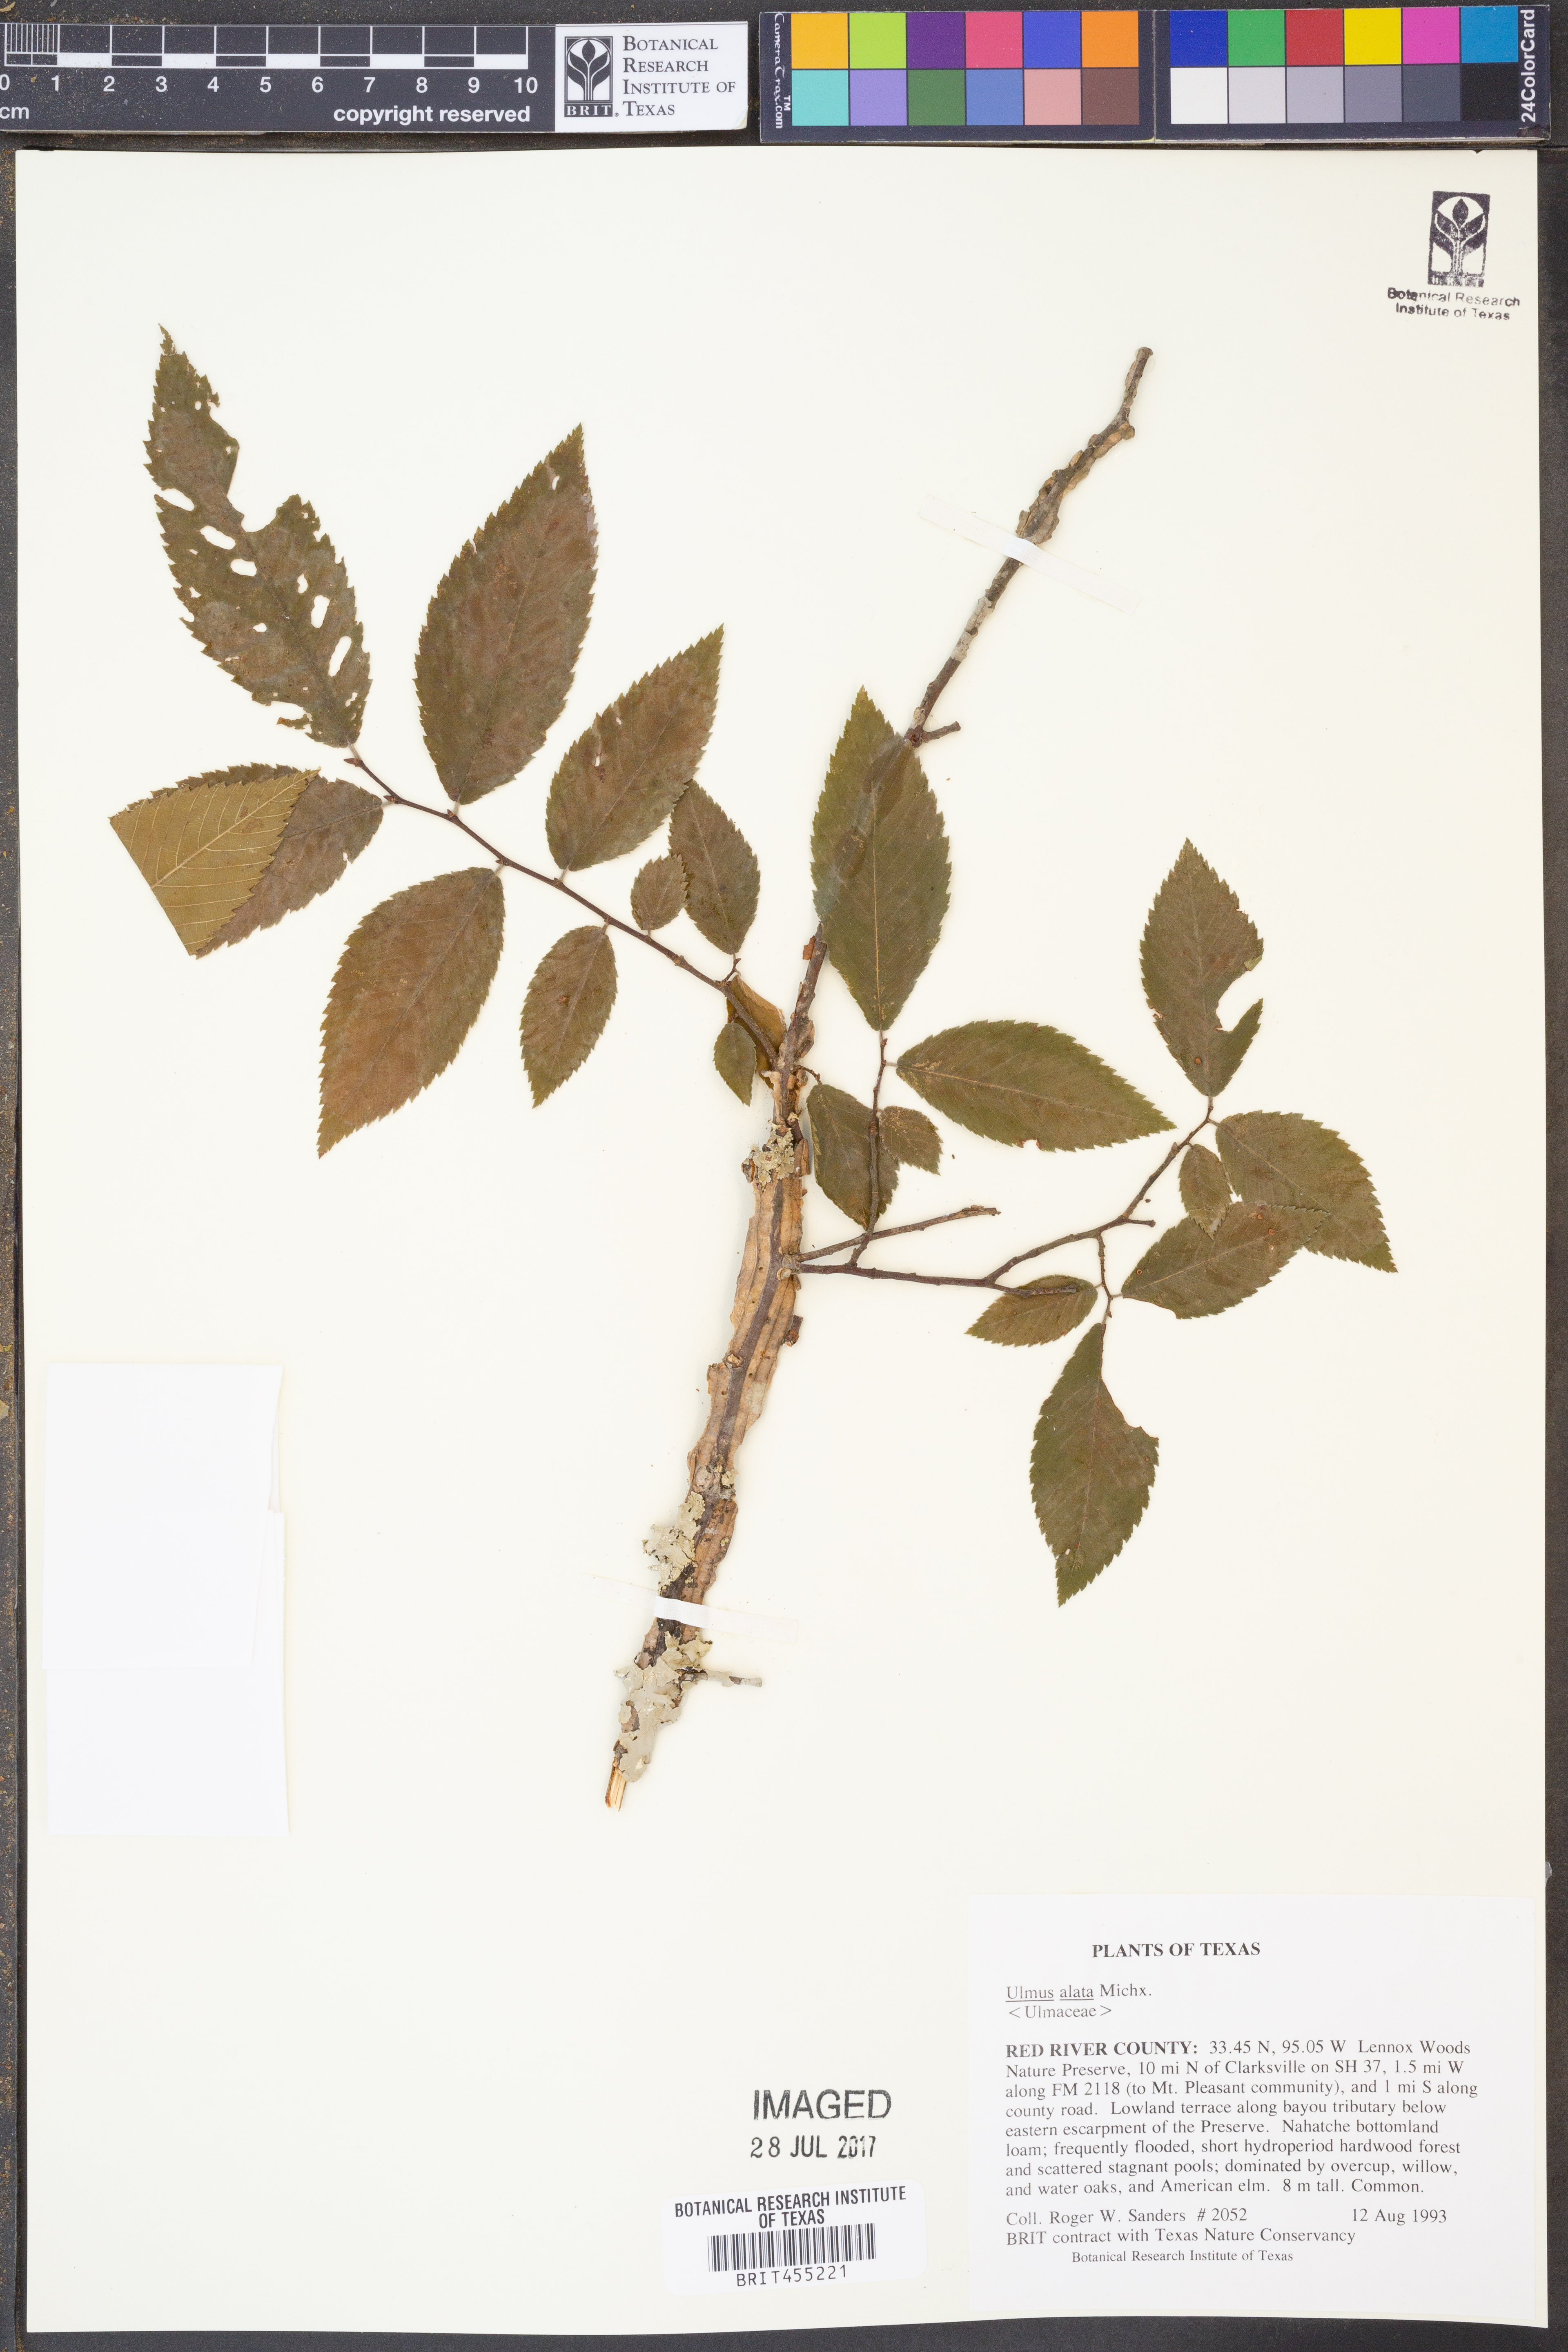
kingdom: Plantae
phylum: Tracheophyta
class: Magnoliopsida
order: Rosales
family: Ulmaceae
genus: Ulmus
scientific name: Ulmus alata
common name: Winged elm
